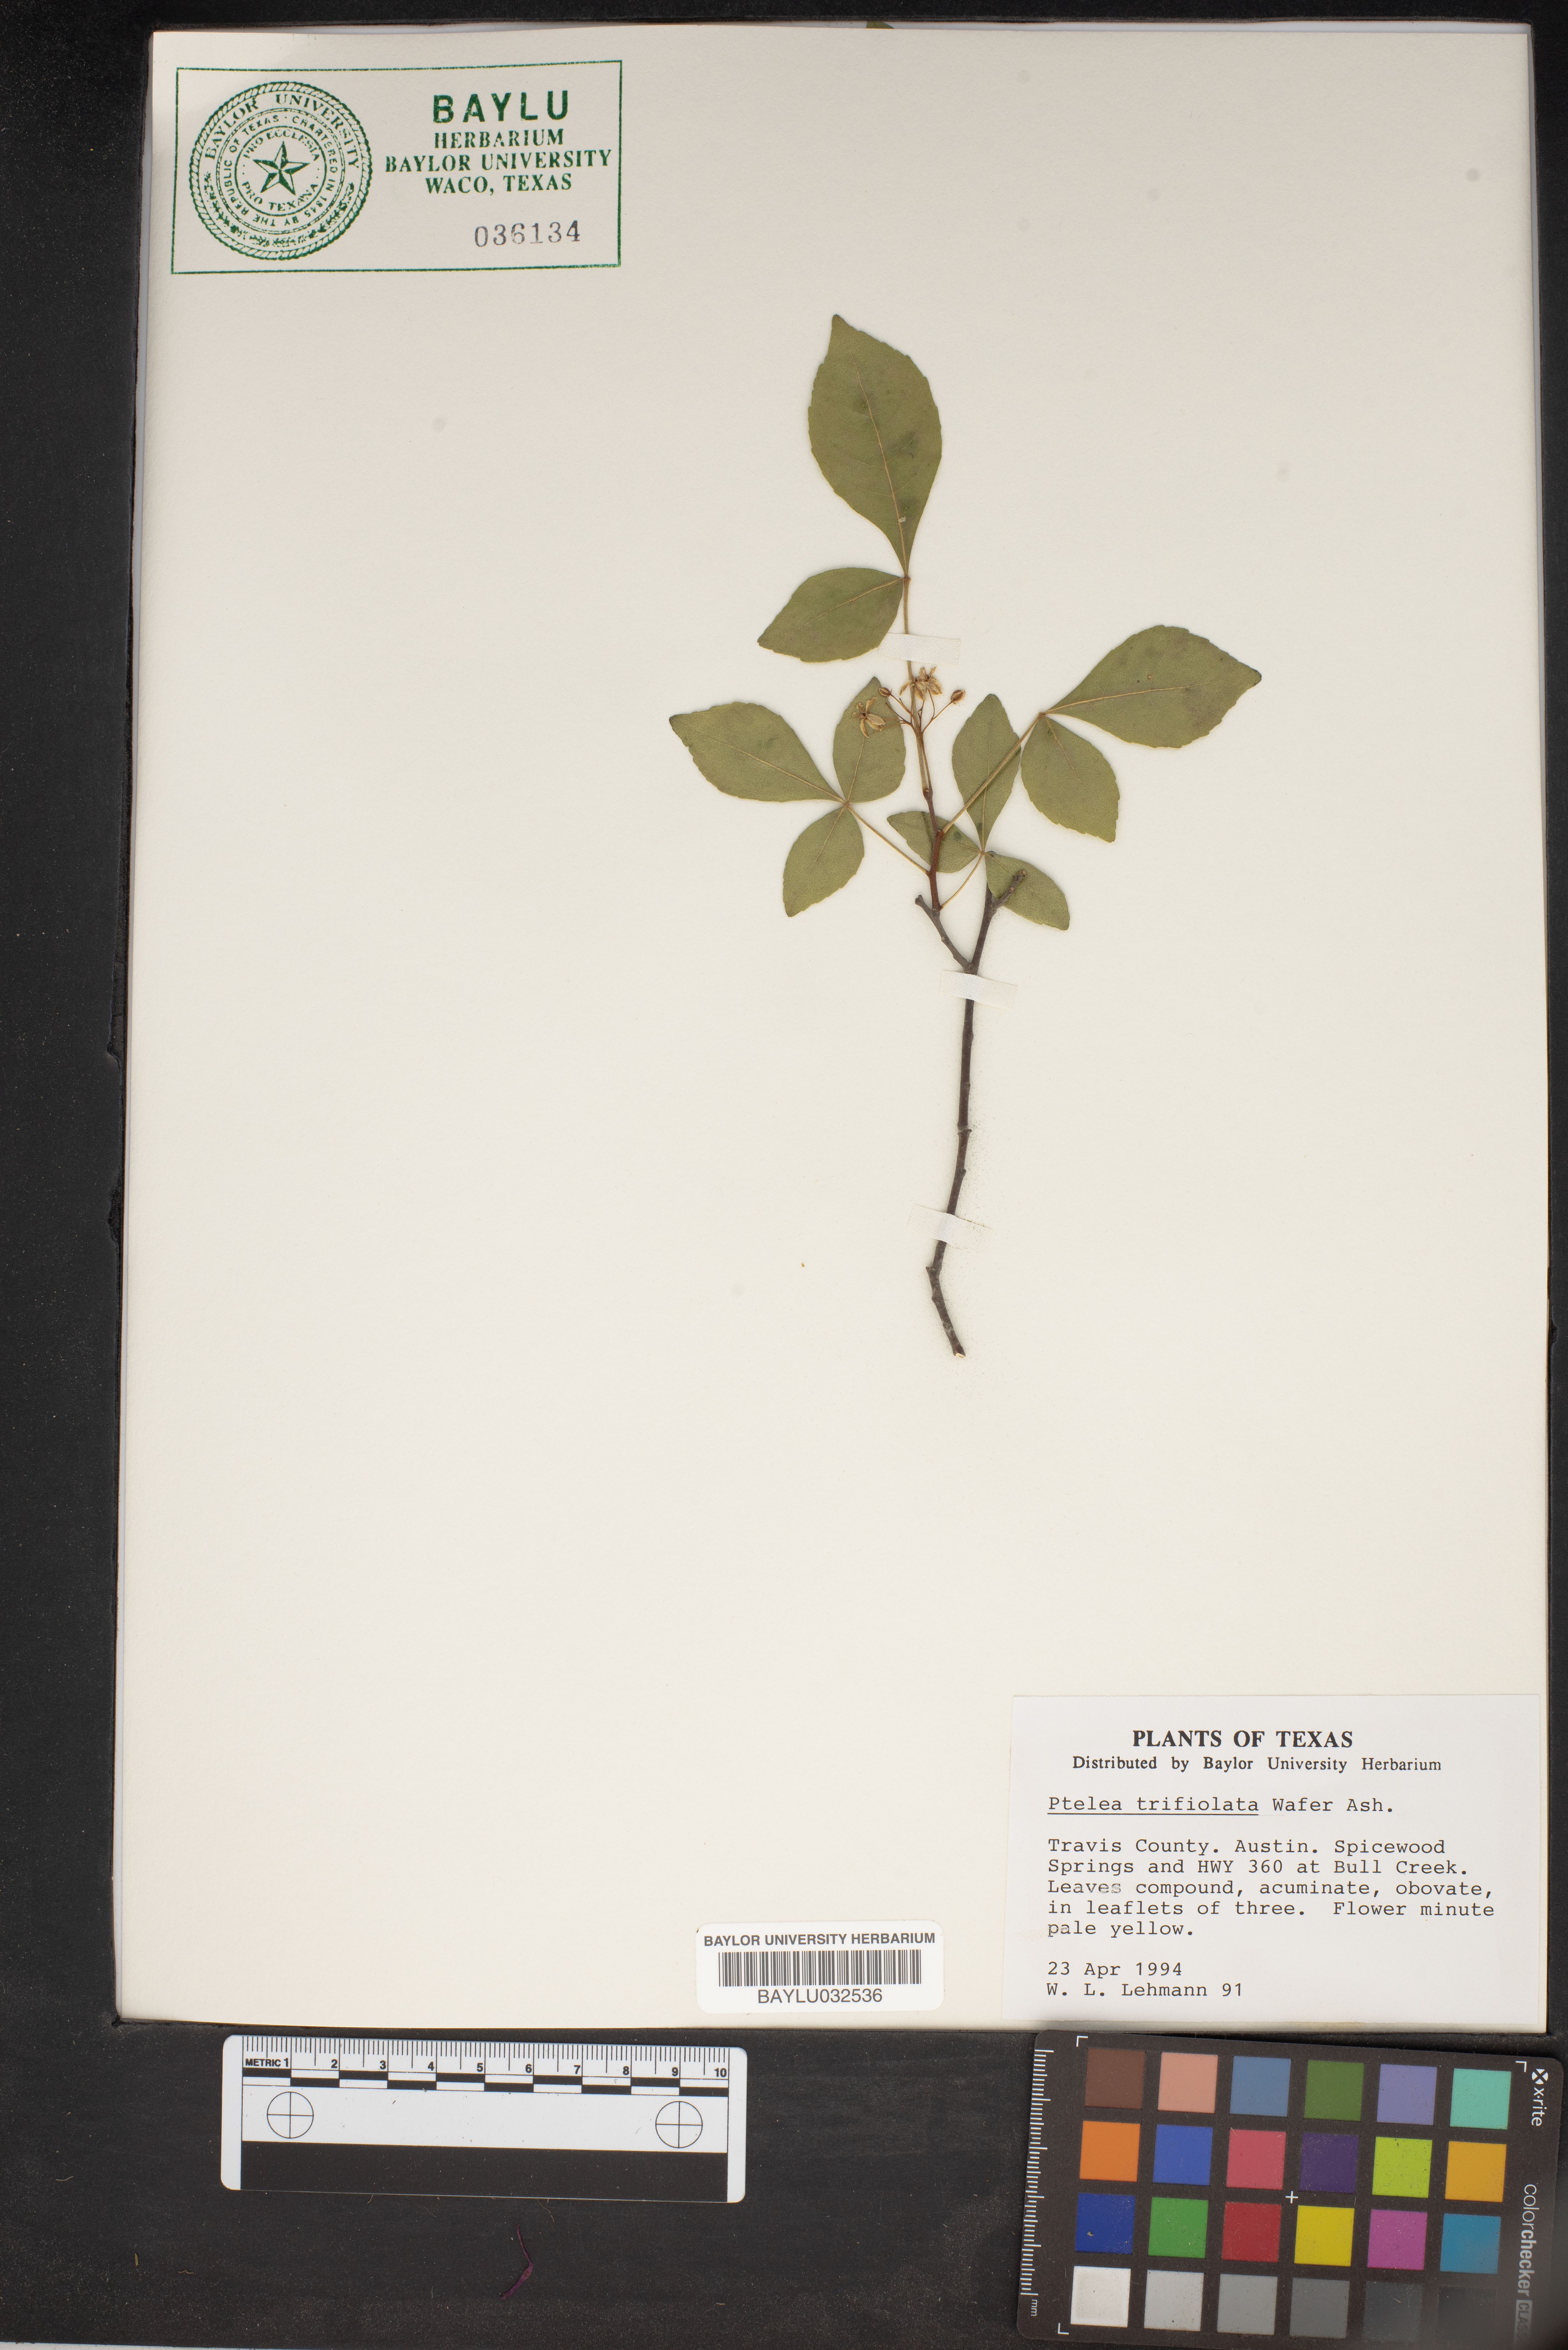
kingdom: Plantae
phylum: Tracheophyta
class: Magnoliopsida
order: Sapindales
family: Rutaceae
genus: Ptelea
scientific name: Ptelea trifoliata
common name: Common hop-tree
